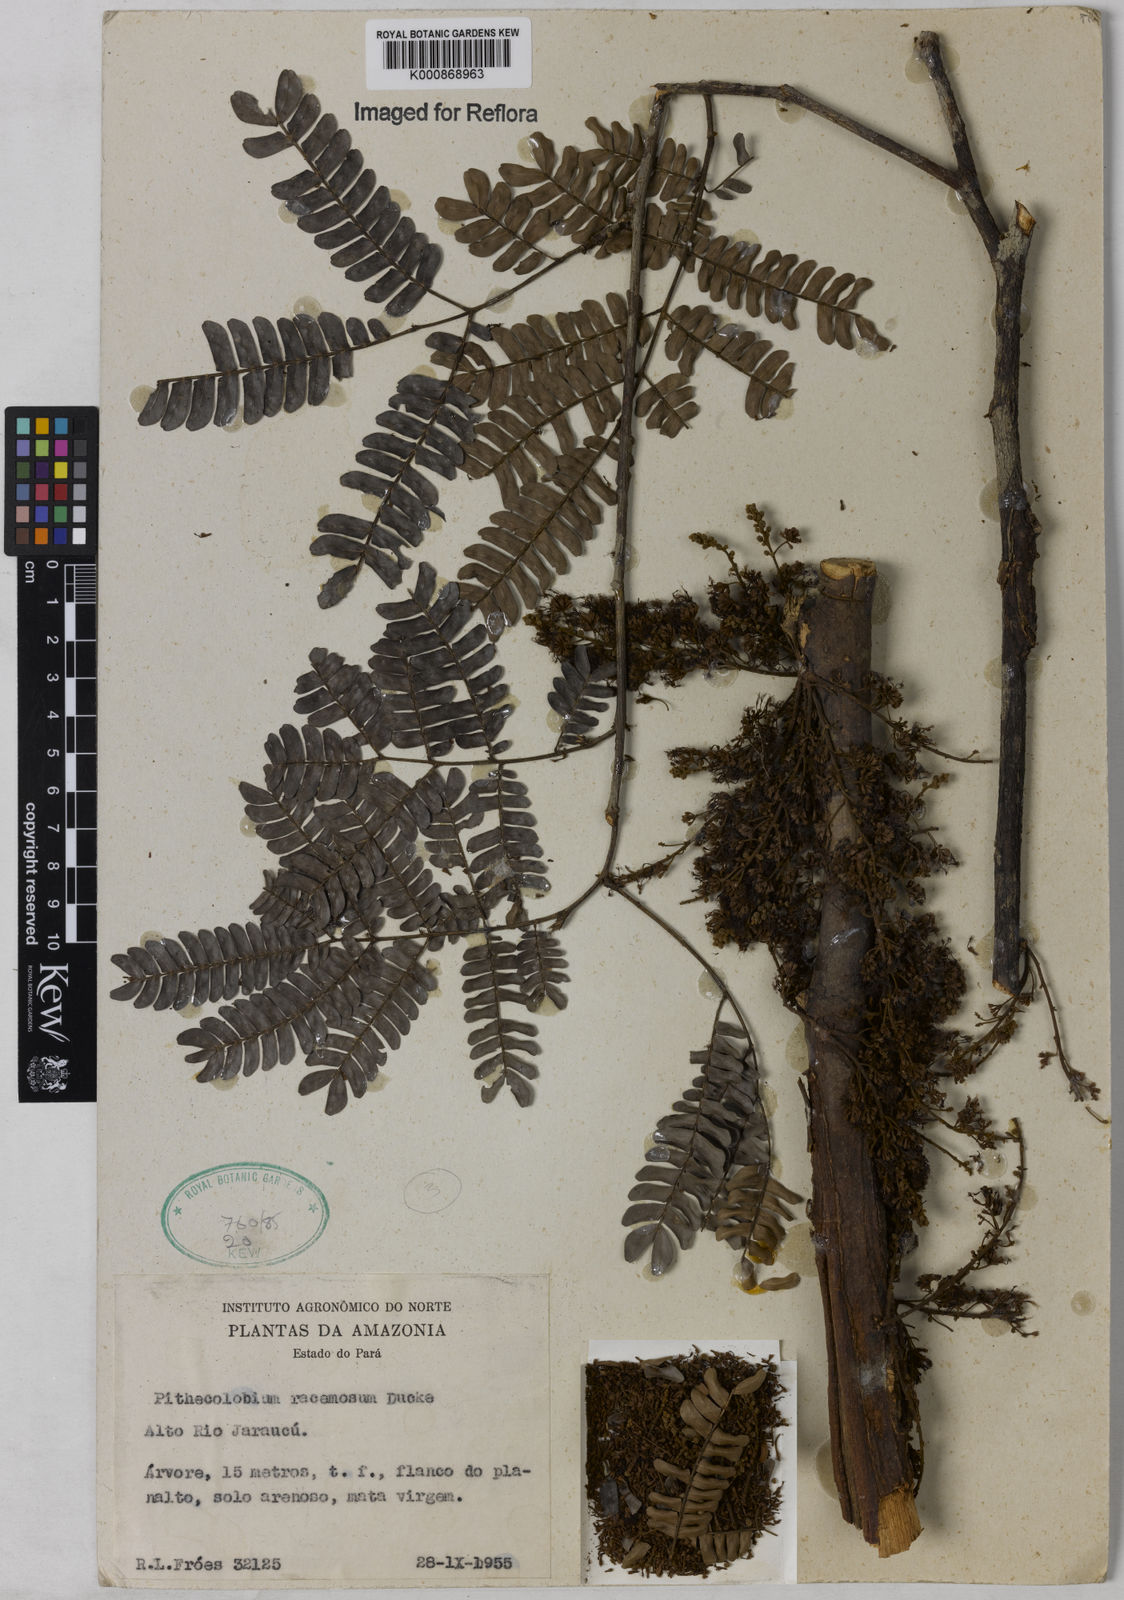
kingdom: Plantae
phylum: Tracheophyta
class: Magnoliopsida
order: Fabales
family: Fabaceae
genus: Marmaroxylon
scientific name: Marmaroxylon
